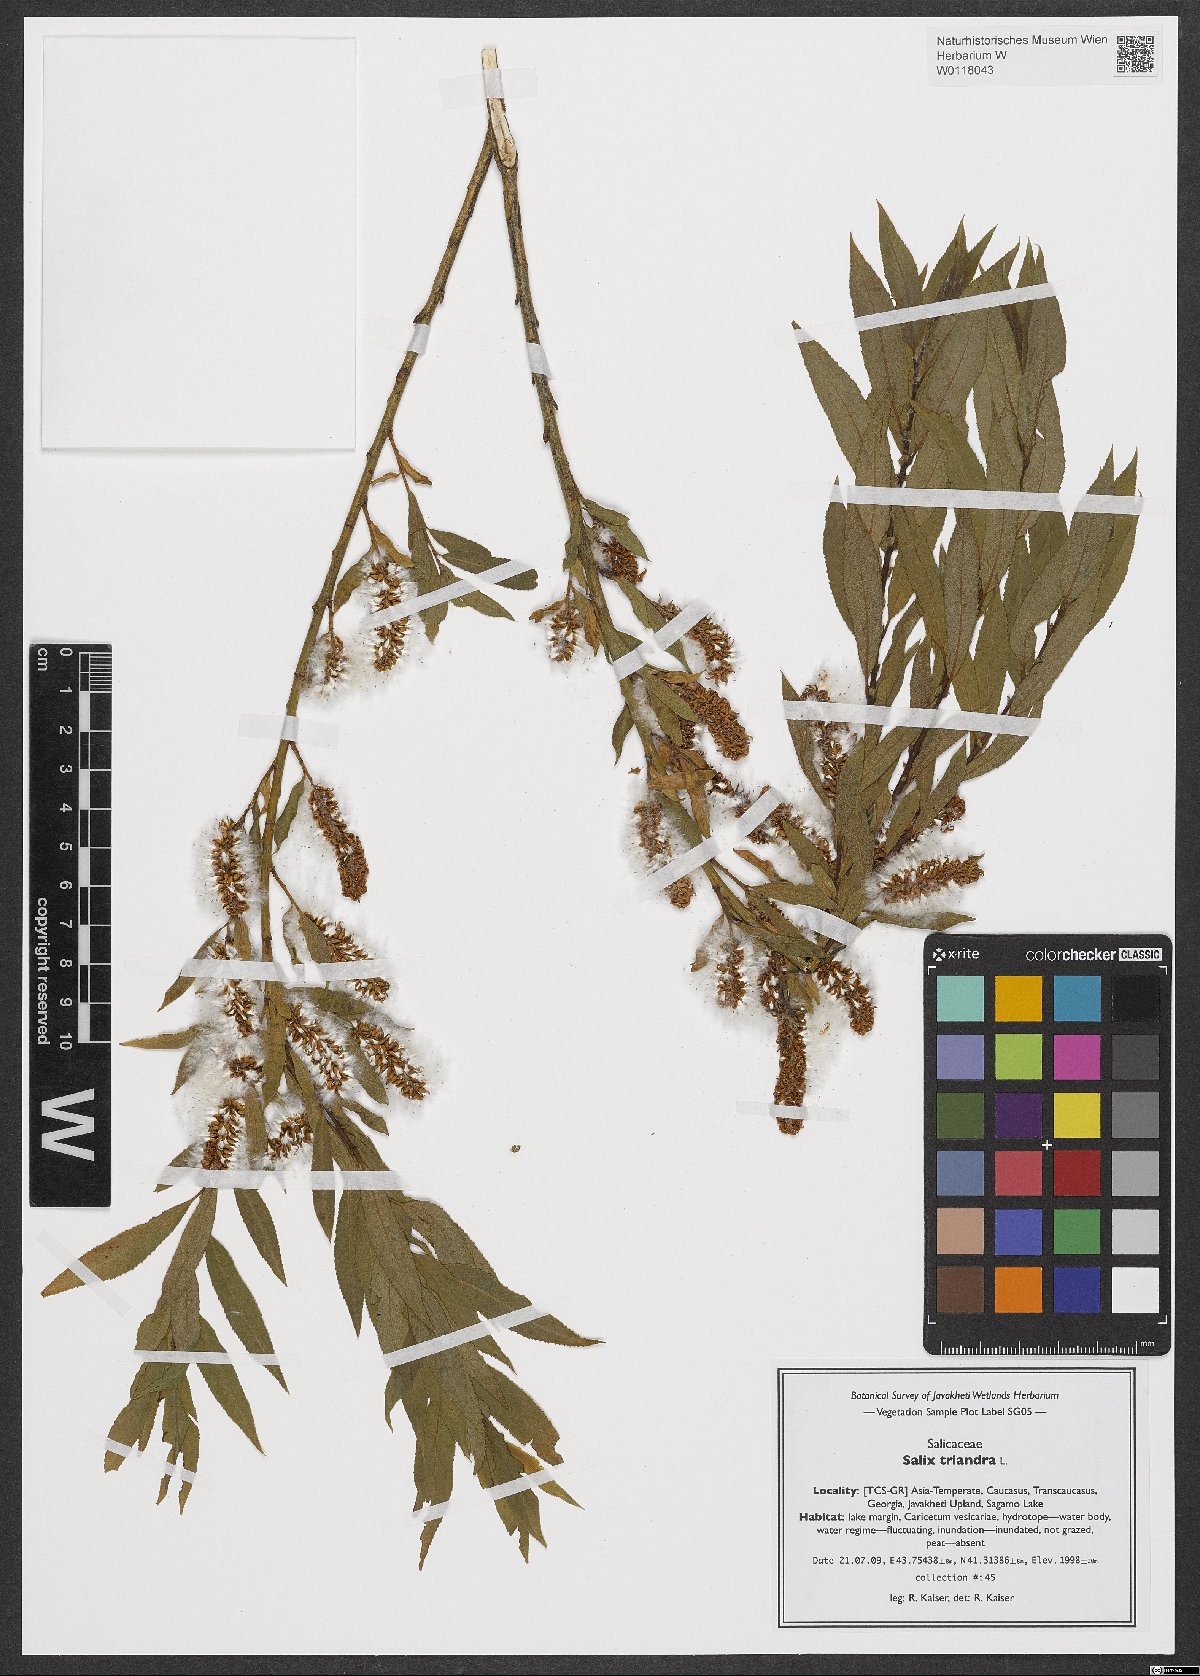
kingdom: Plantae
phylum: Tracheophyta
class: Magnoliopsida
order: Malpighiales
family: Salicaceae
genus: Salix
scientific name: Salix triandra
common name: Almond willow
